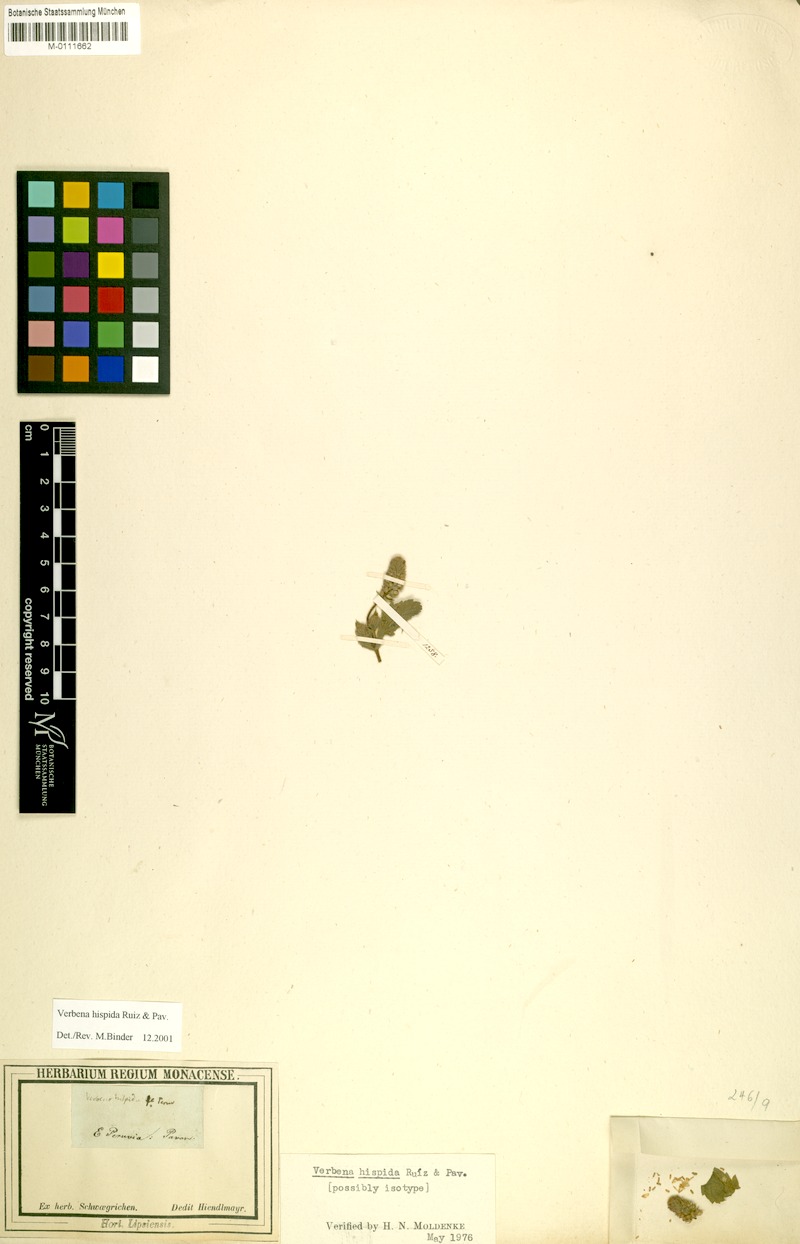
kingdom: Plantae
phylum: Tracheophyta
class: Magnoliopsida
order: Lamiales
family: Verbenaceae
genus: Verbena
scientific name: Verbena hispida
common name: Hairy vervain
